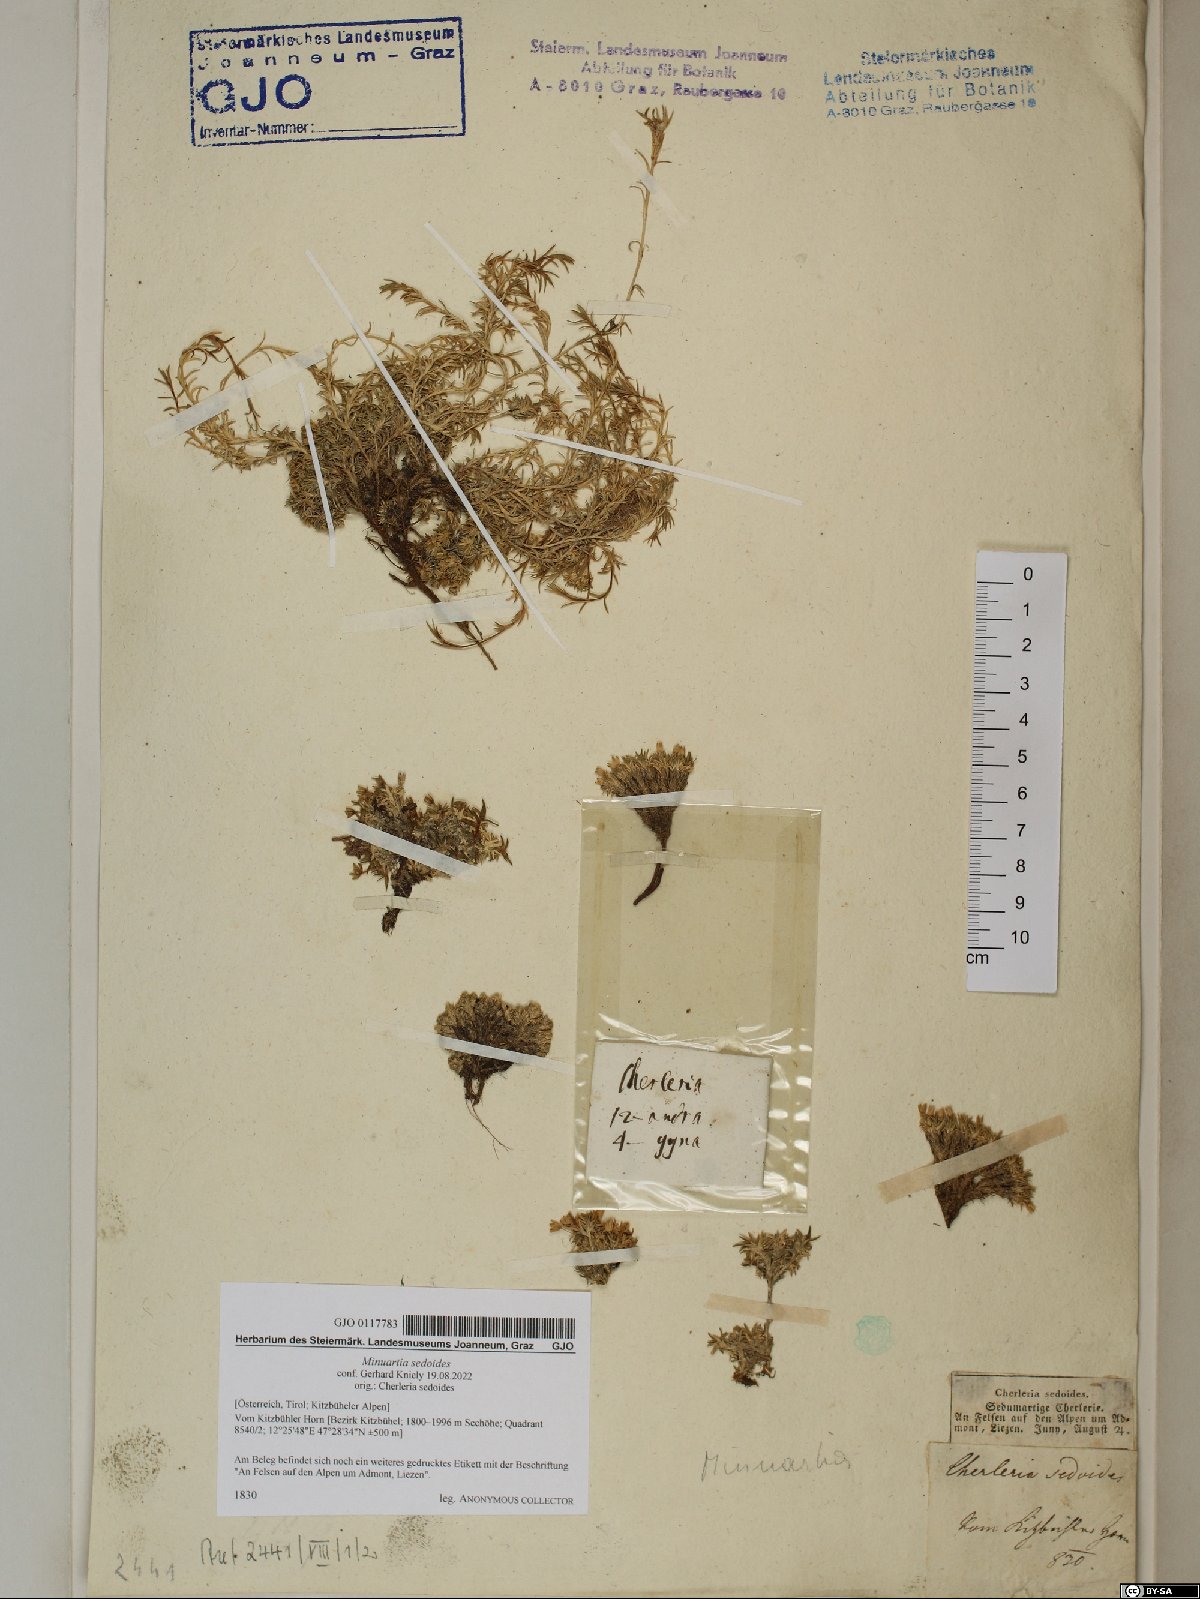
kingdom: Plantae
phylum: Tracheophyta
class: Magnoliopsida
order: Caryophyllales
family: Caryophyllaceae
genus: Cherleria
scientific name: Cherleria sedoides
